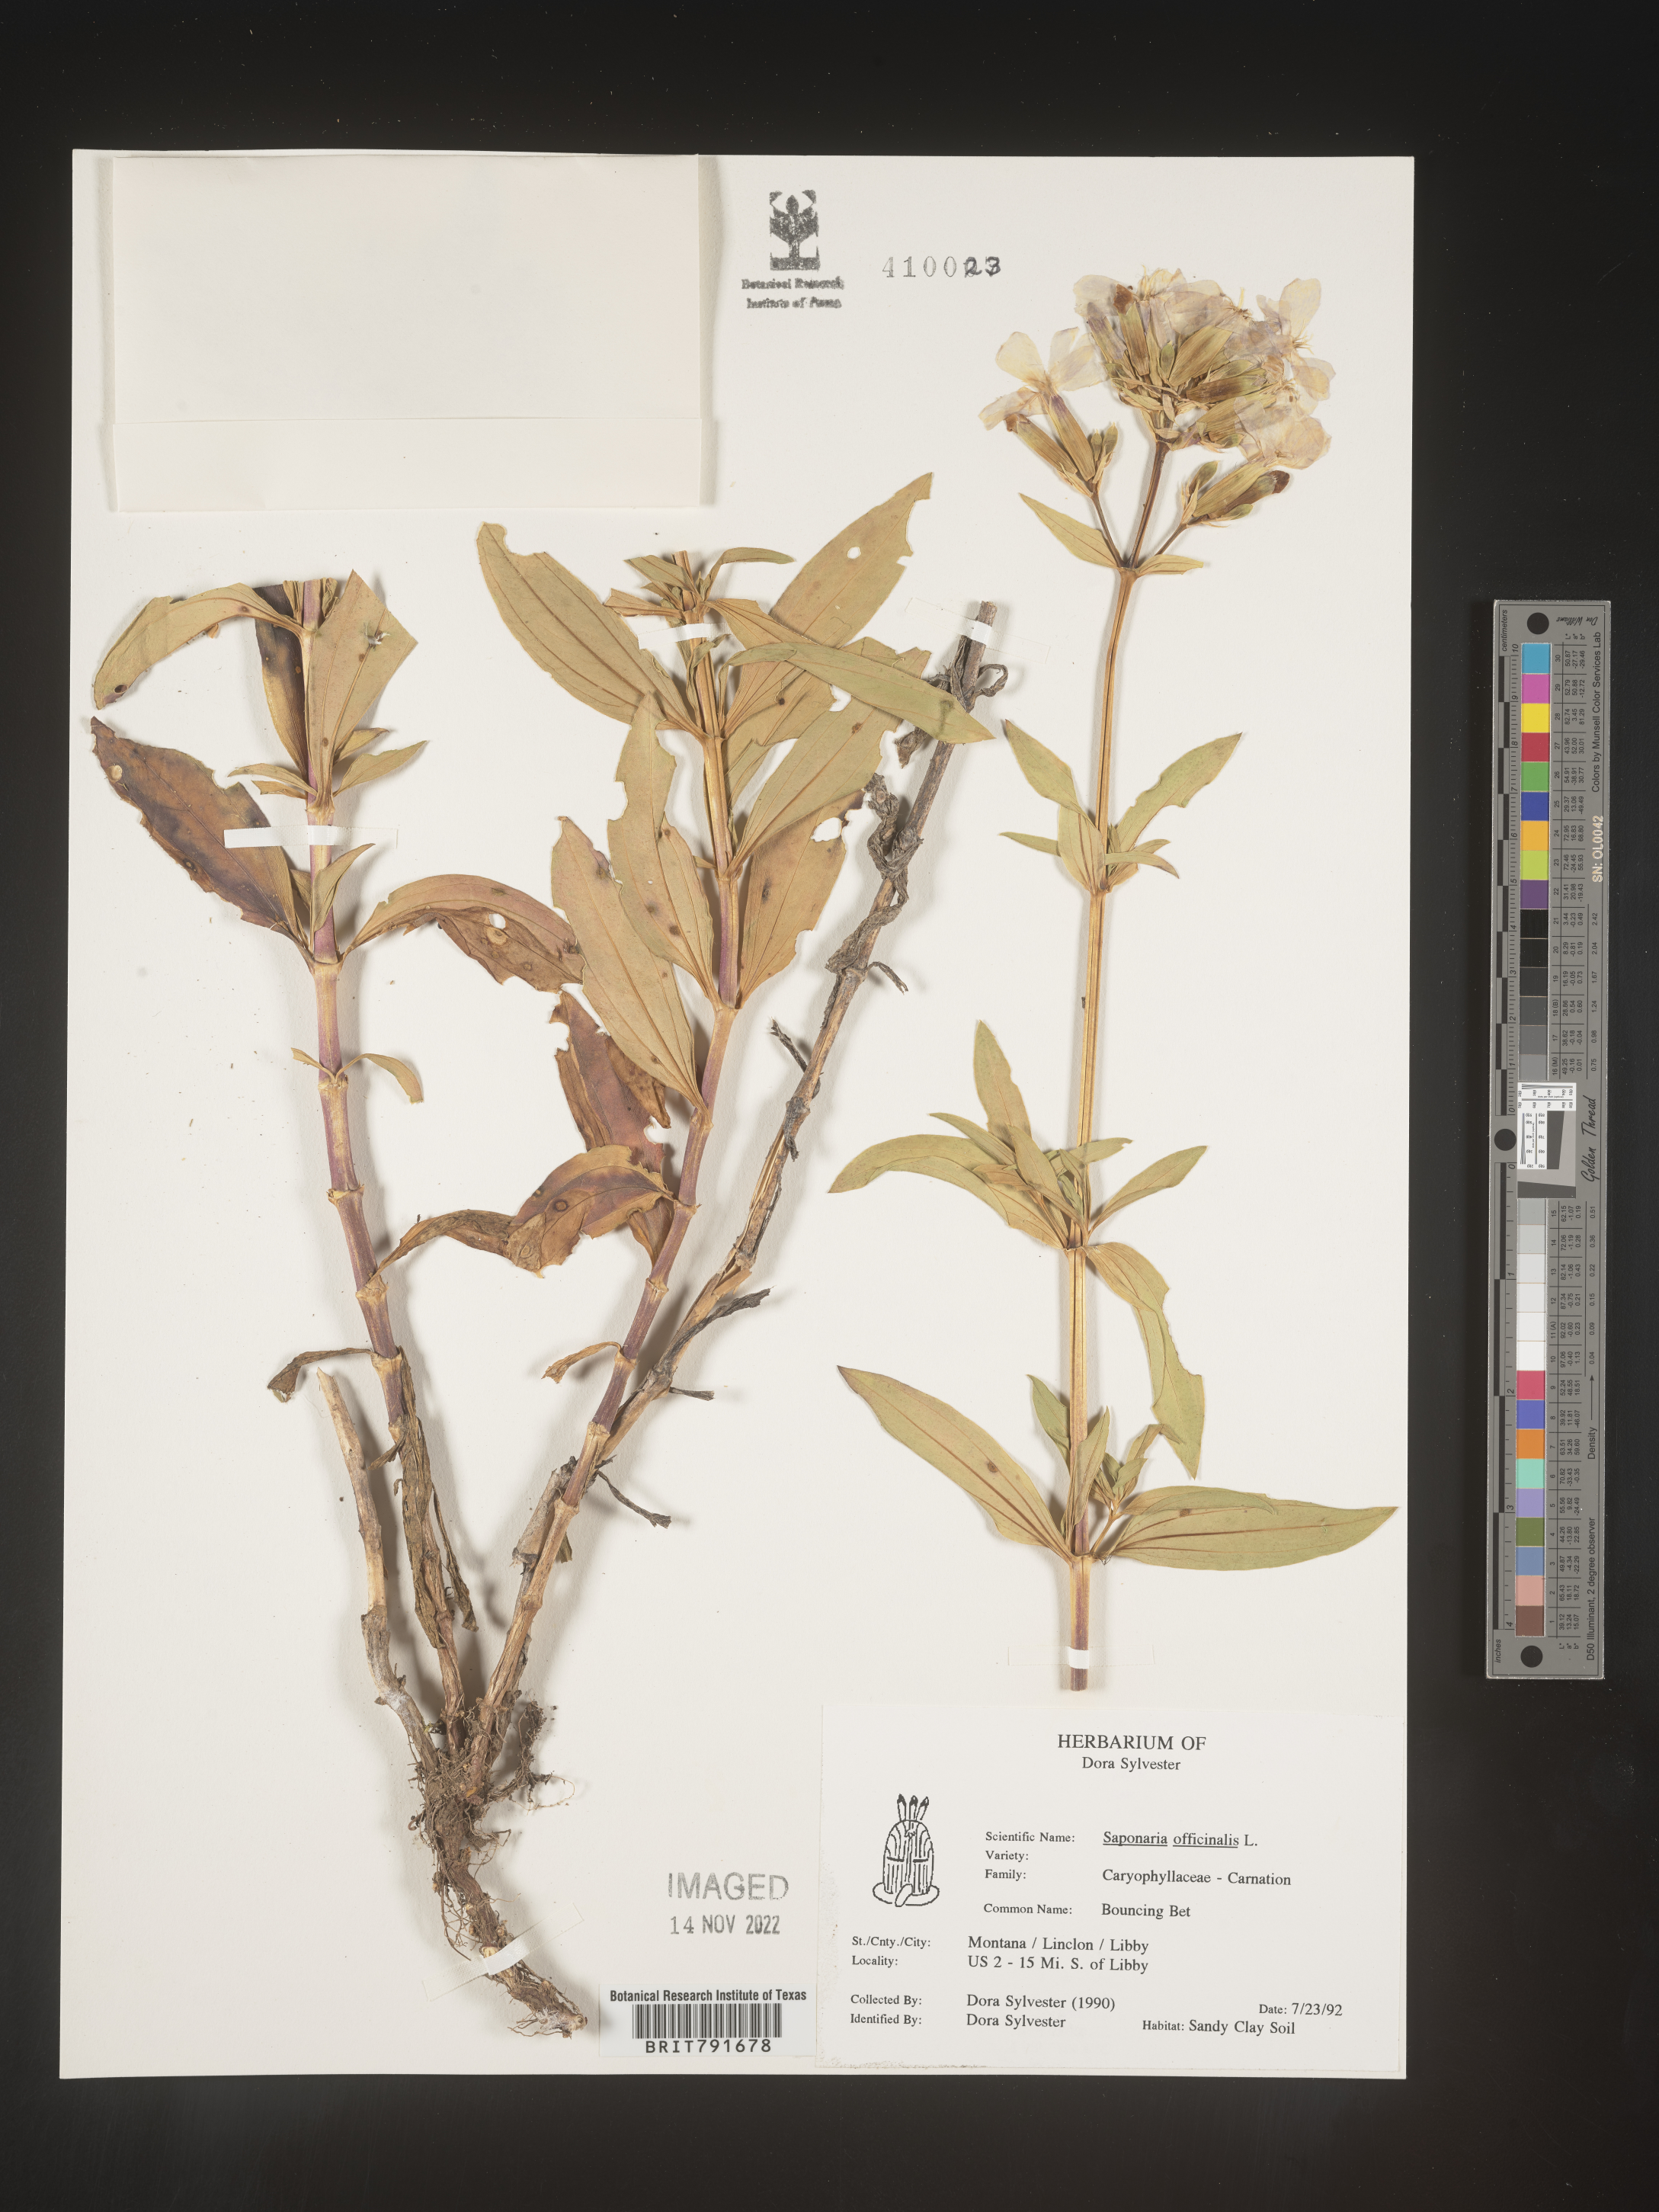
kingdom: Plantae
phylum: Tracheophyta
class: Magnoliopsida
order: Caryophyllales
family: Caryophyllaceae
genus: Saponaria
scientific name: Saponaria officinalis
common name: Soapwort
